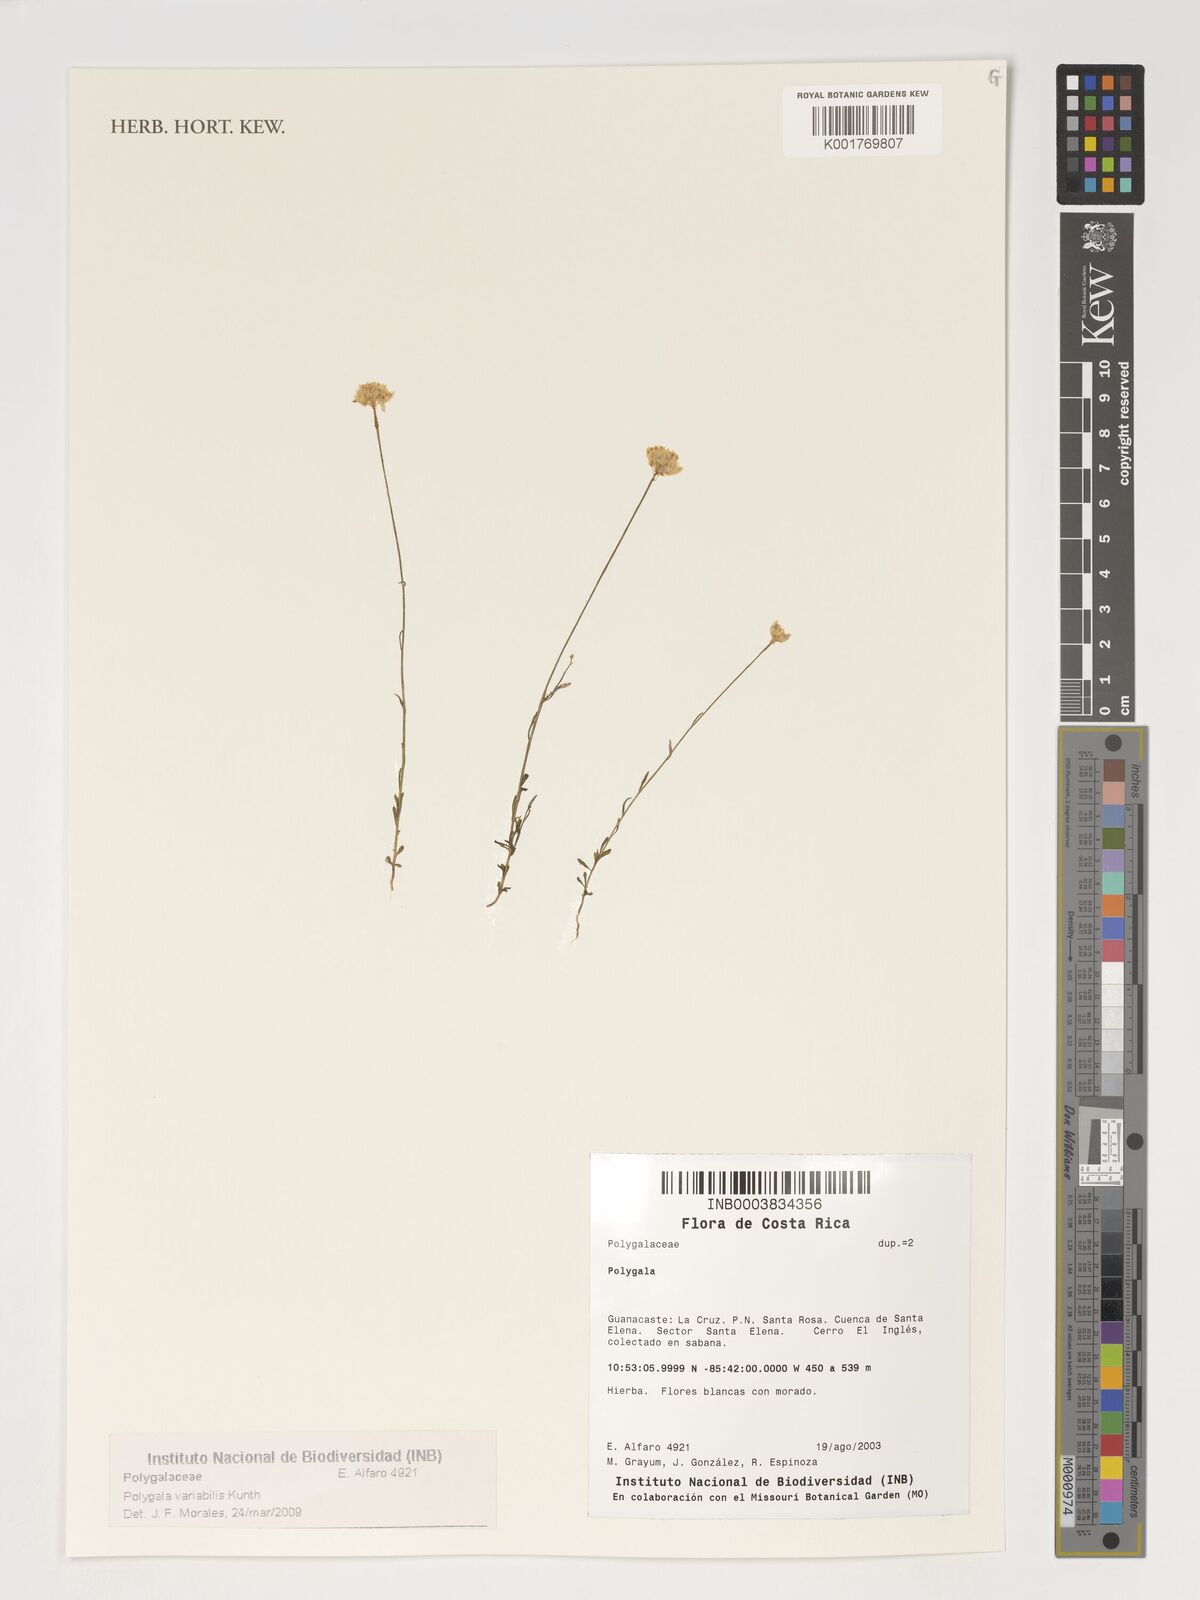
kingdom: Plantae
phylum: Tracheophyta
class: Magnoliopsida
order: Fabales
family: Polygalaceae
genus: Polygala
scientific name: Polygala trichosperma
